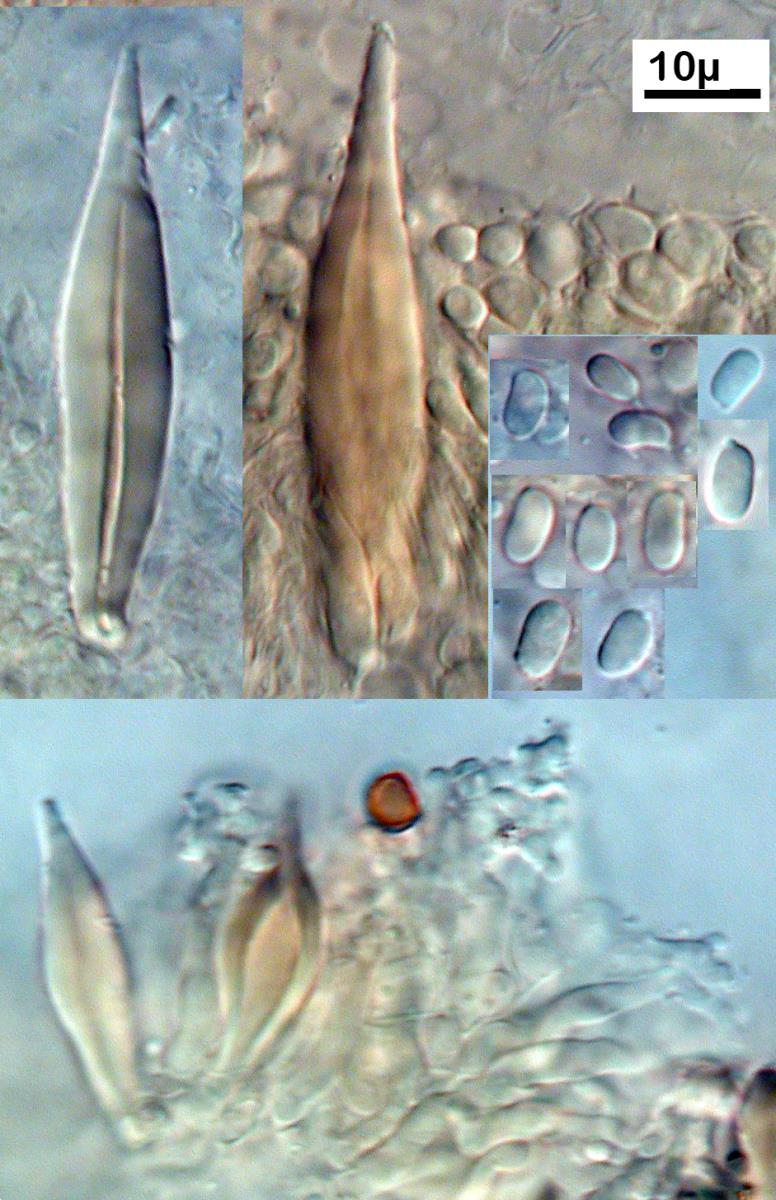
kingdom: Fungi
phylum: Basidiomycota
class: Agaricomycetes
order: Agaricales
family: Pleurotaceae
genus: Hohenbuehelia
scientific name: Hohenbuehelia nothofaginea
